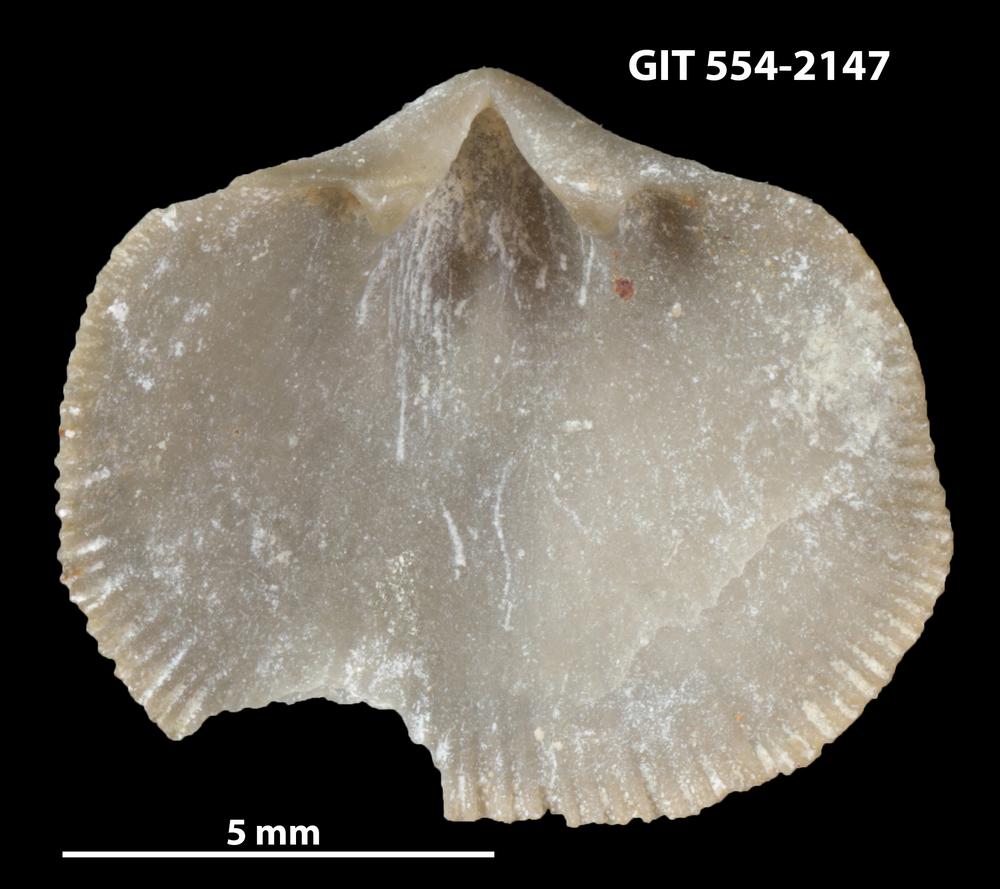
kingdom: Animalia
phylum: Brachiopoda
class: Rhynchonellata
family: Dalmanellidae
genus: Levenea
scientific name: Levenea Orthis canaliculata
